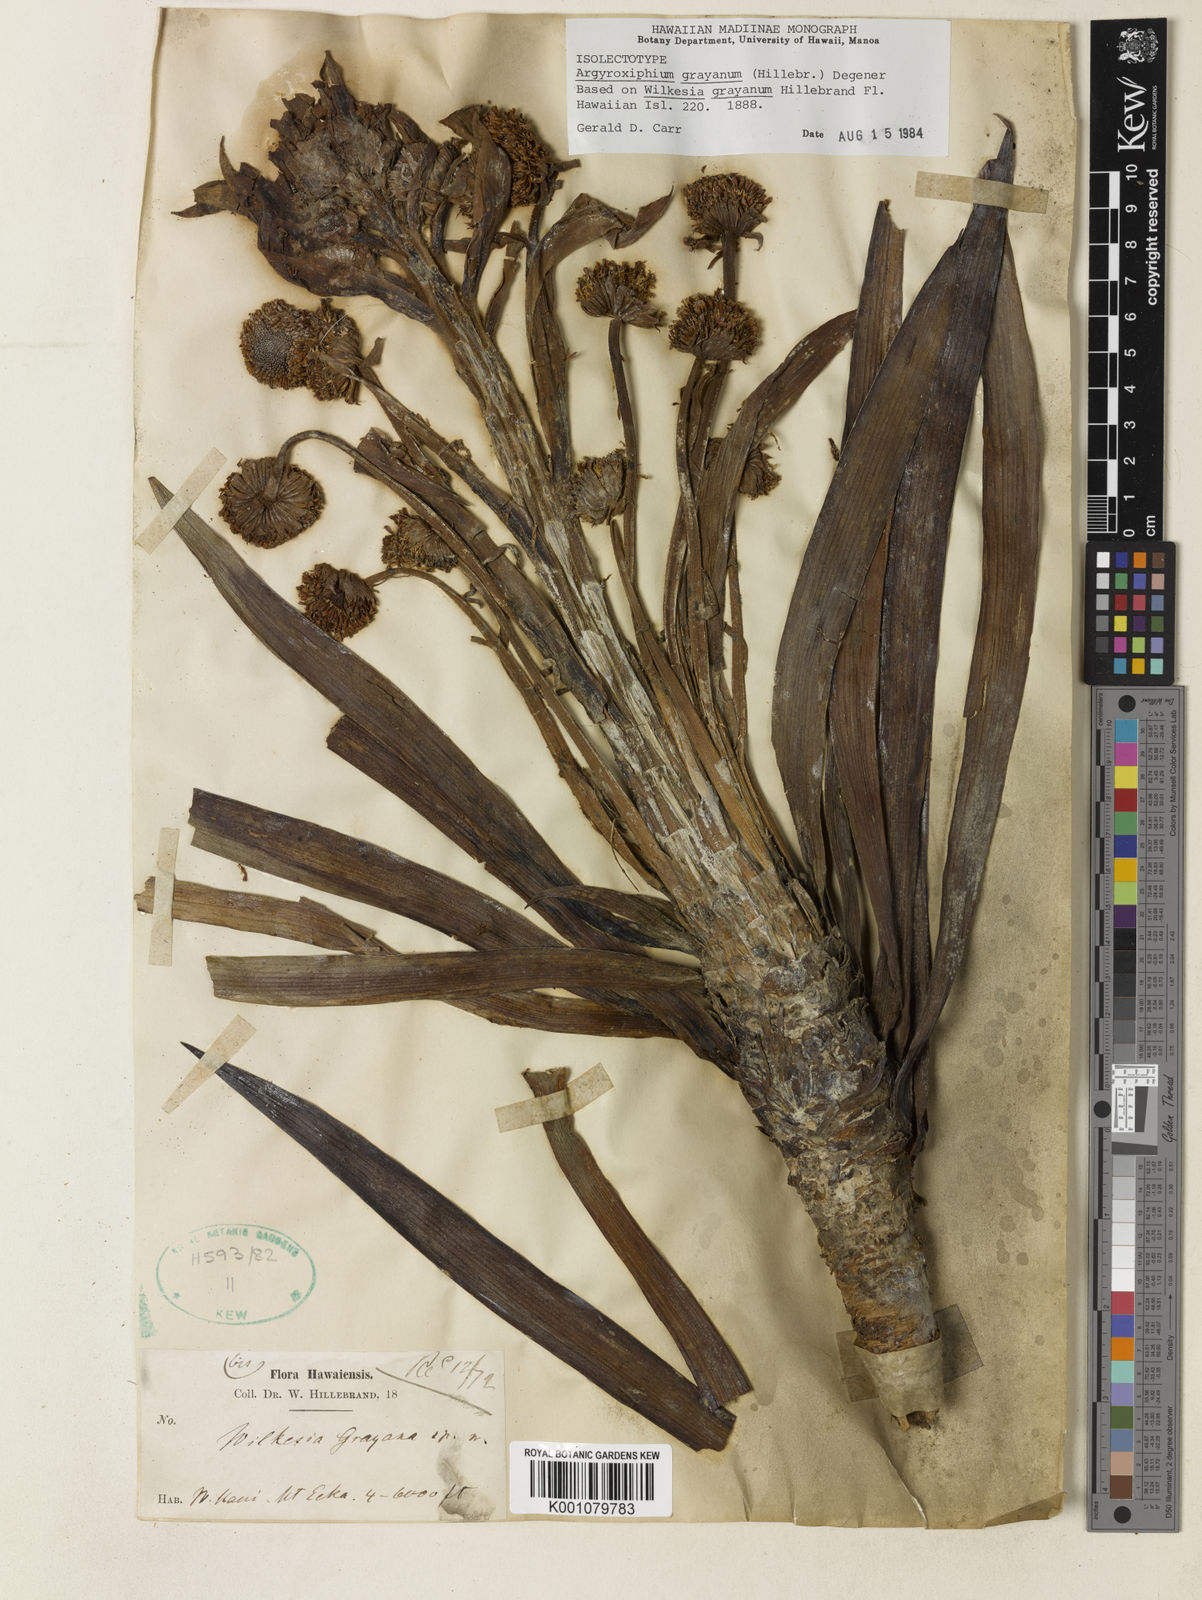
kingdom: Plantae
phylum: Tracheophyta
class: Magnoliopsida
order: Asterales
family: Asteraceae
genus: Argyroxiphium
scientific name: Argyroxiphium grayanum
